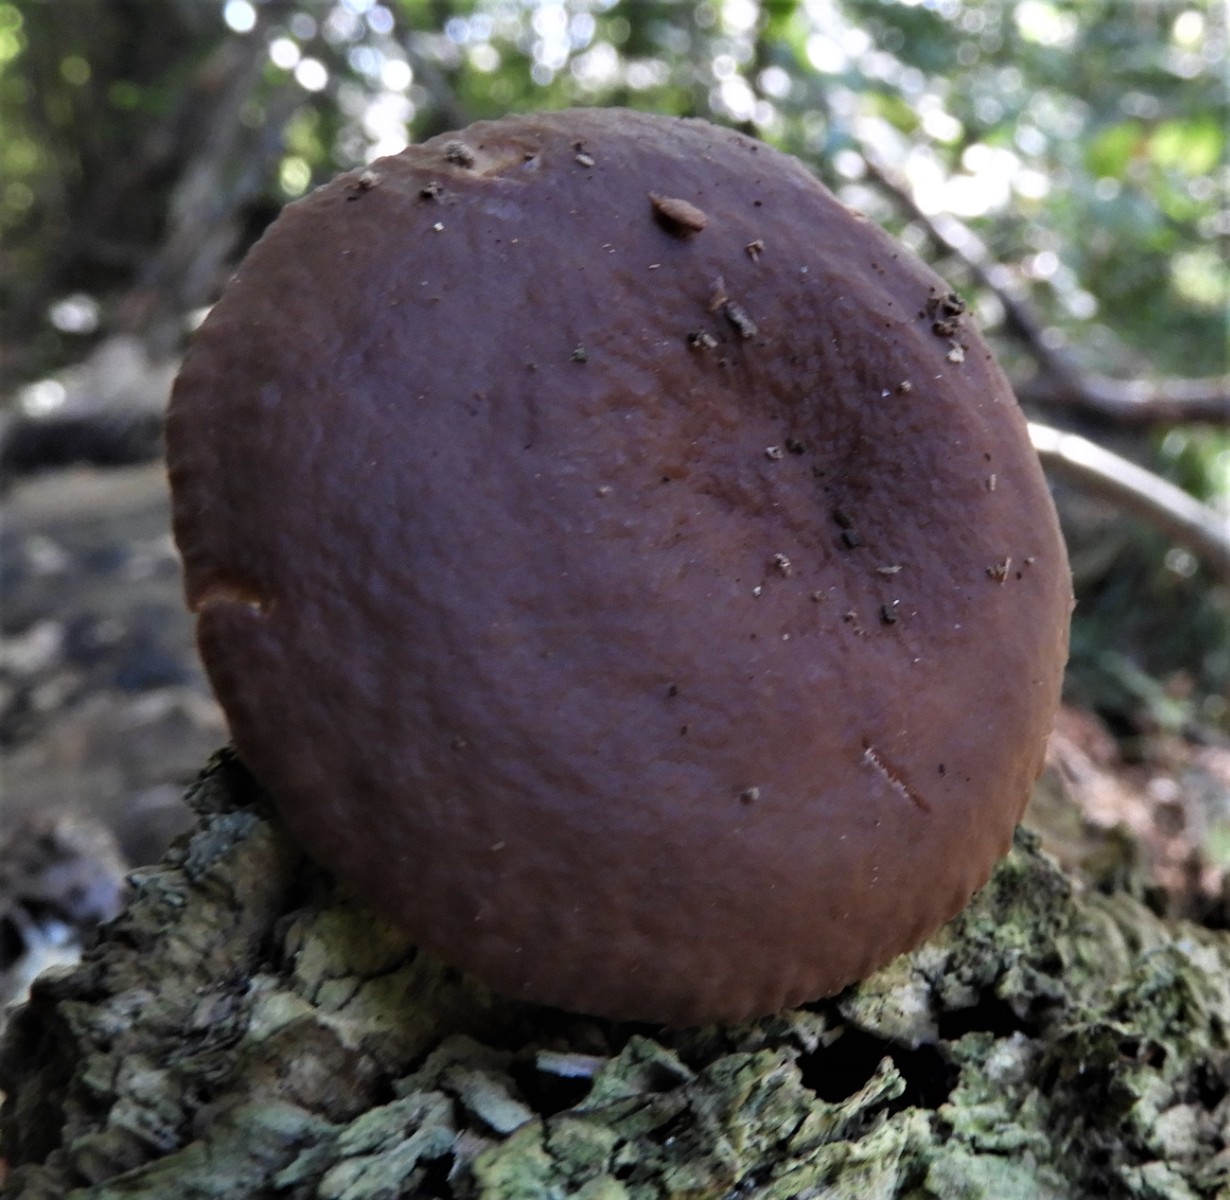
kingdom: Fungi
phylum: Basidiomycota
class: Agaricomycetes
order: Russulales
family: Russulaceae
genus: Lactarius
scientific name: Lactarius serifluus
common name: tæge-mælkehat
